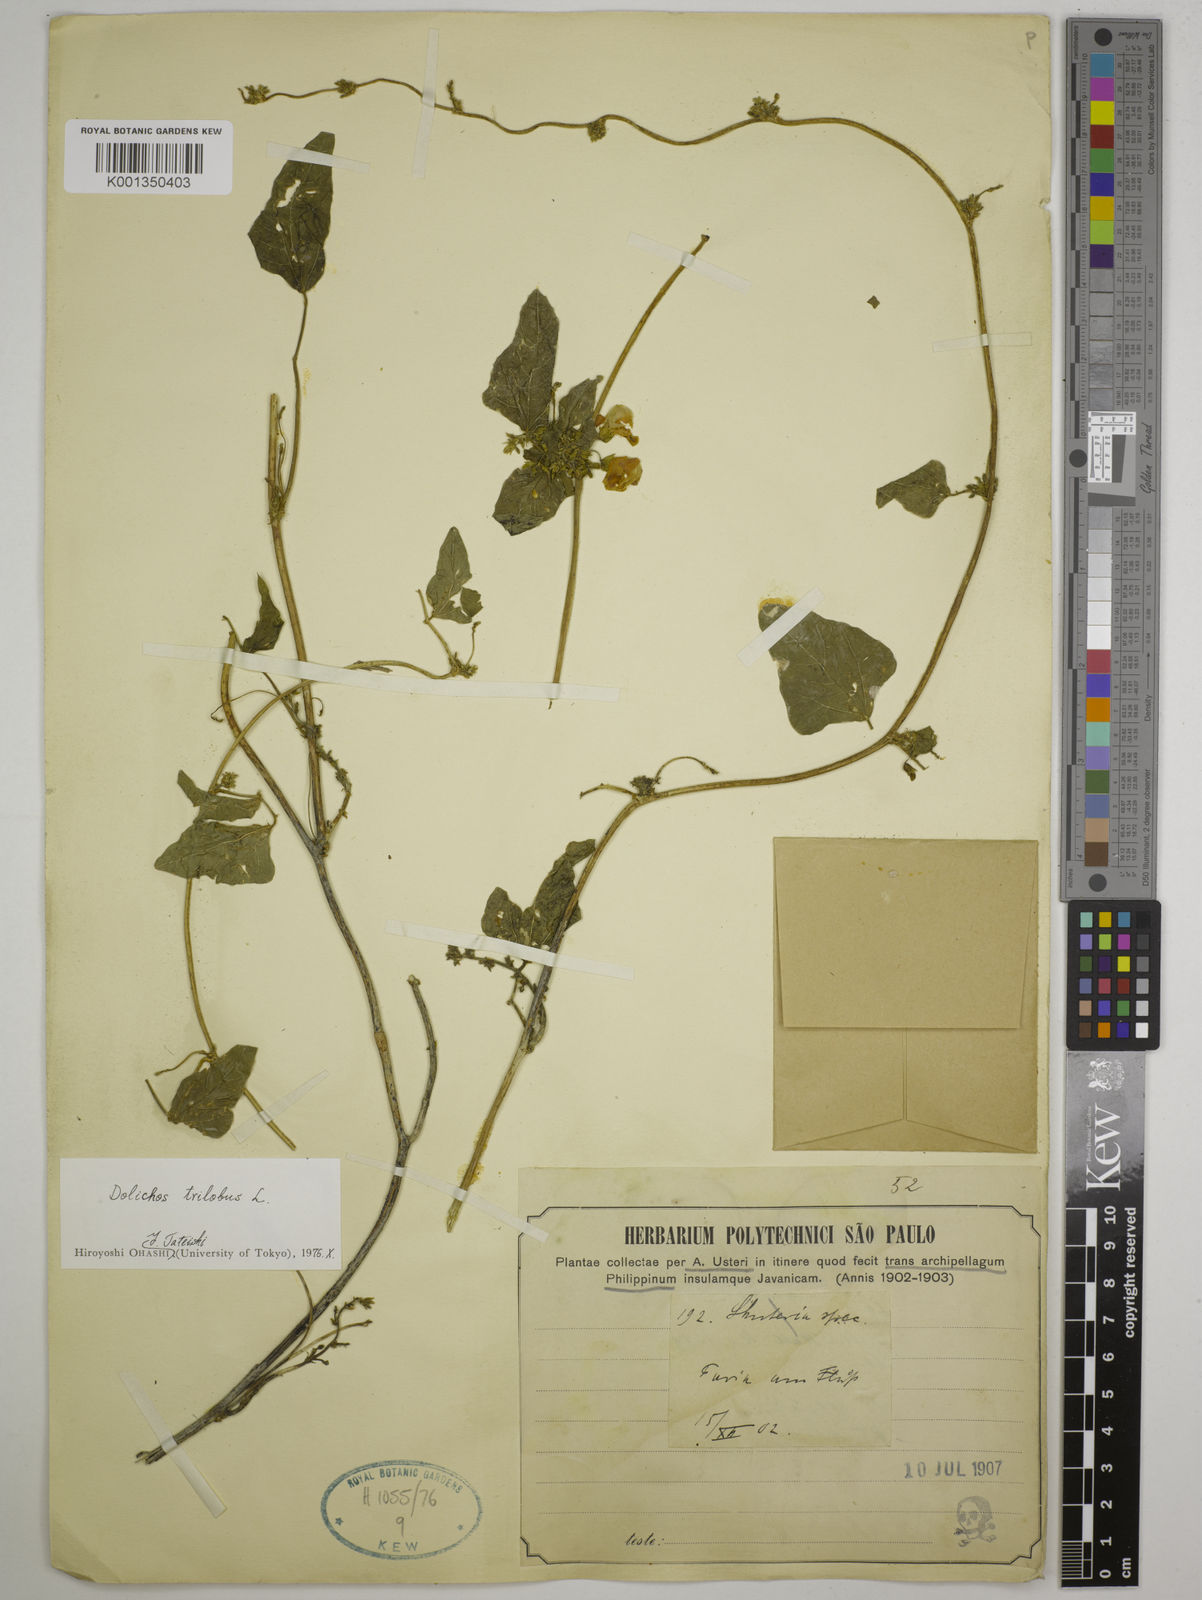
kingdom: Plantae
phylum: Tracheophyta
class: Magnoliopsida
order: Fabales
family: Fabaceae
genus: Dolichos
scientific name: Dolichos
